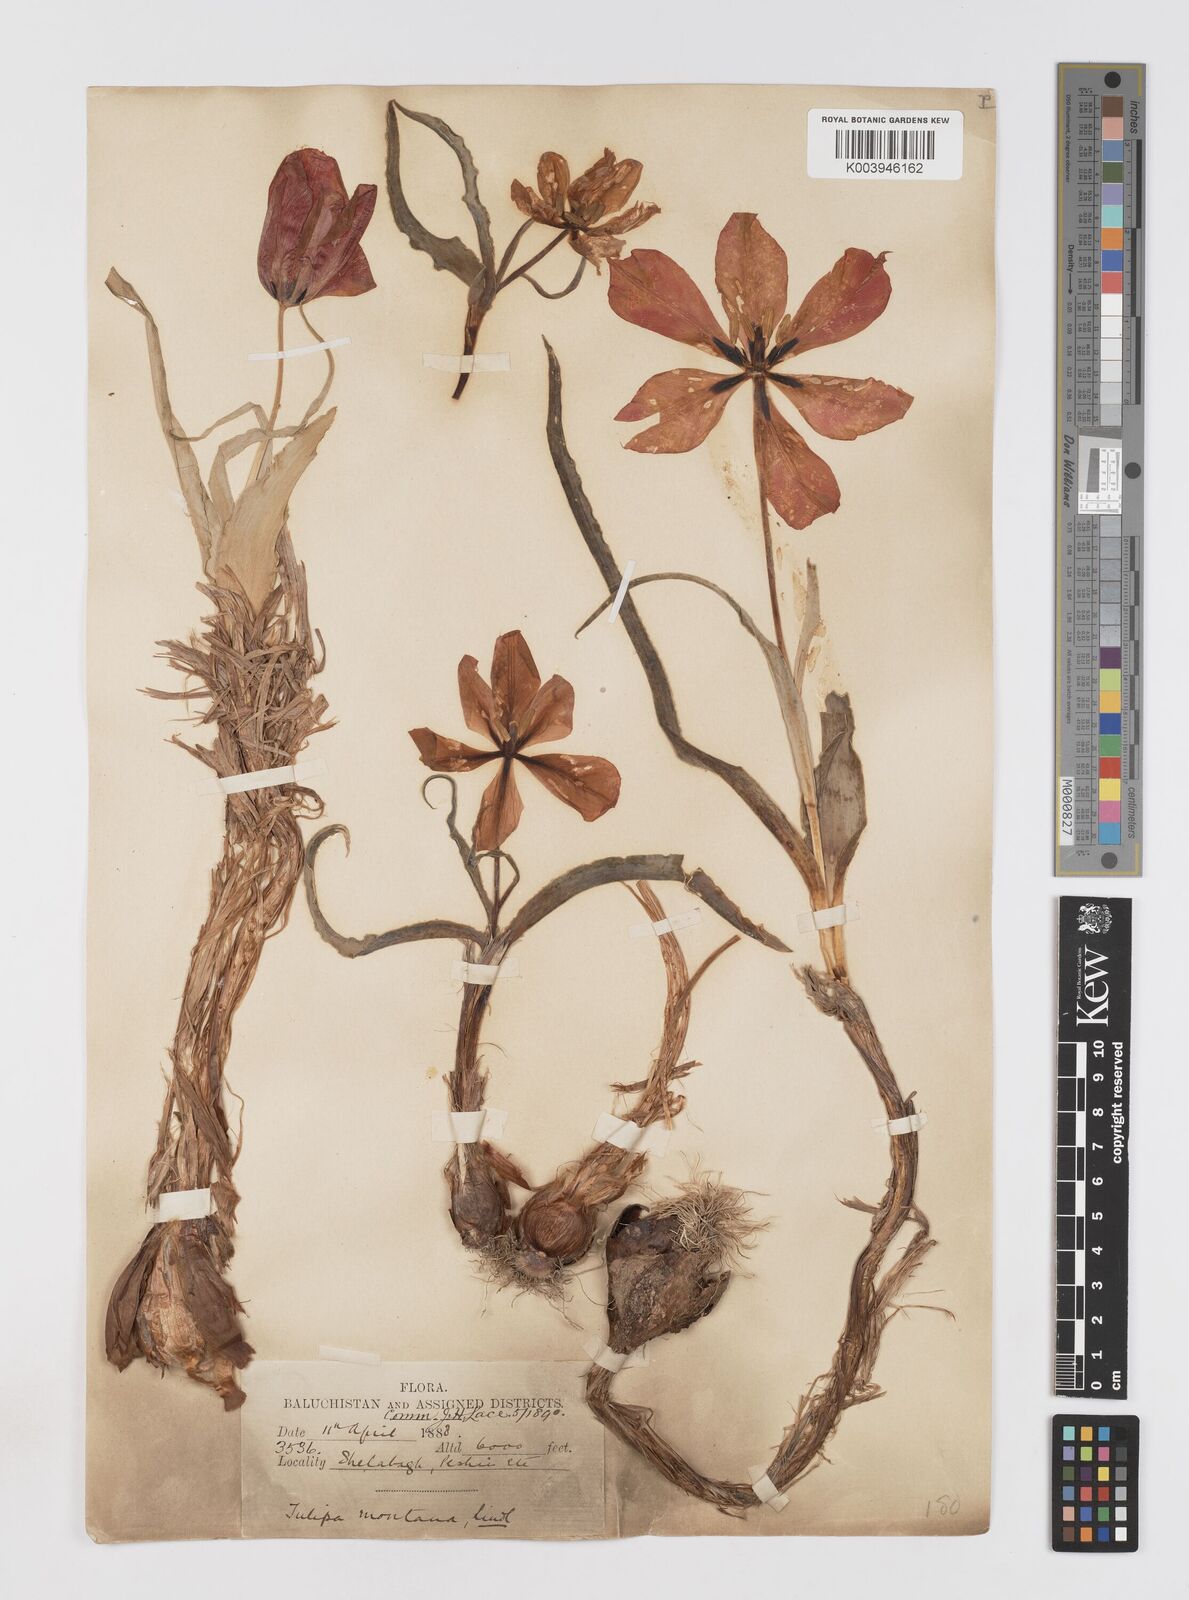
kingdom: Plantae
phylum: Tracheophyta
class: Liliopsida
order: Liliales
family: Liliaceae
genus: Tulipa
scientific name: Tulipa borszczowii
